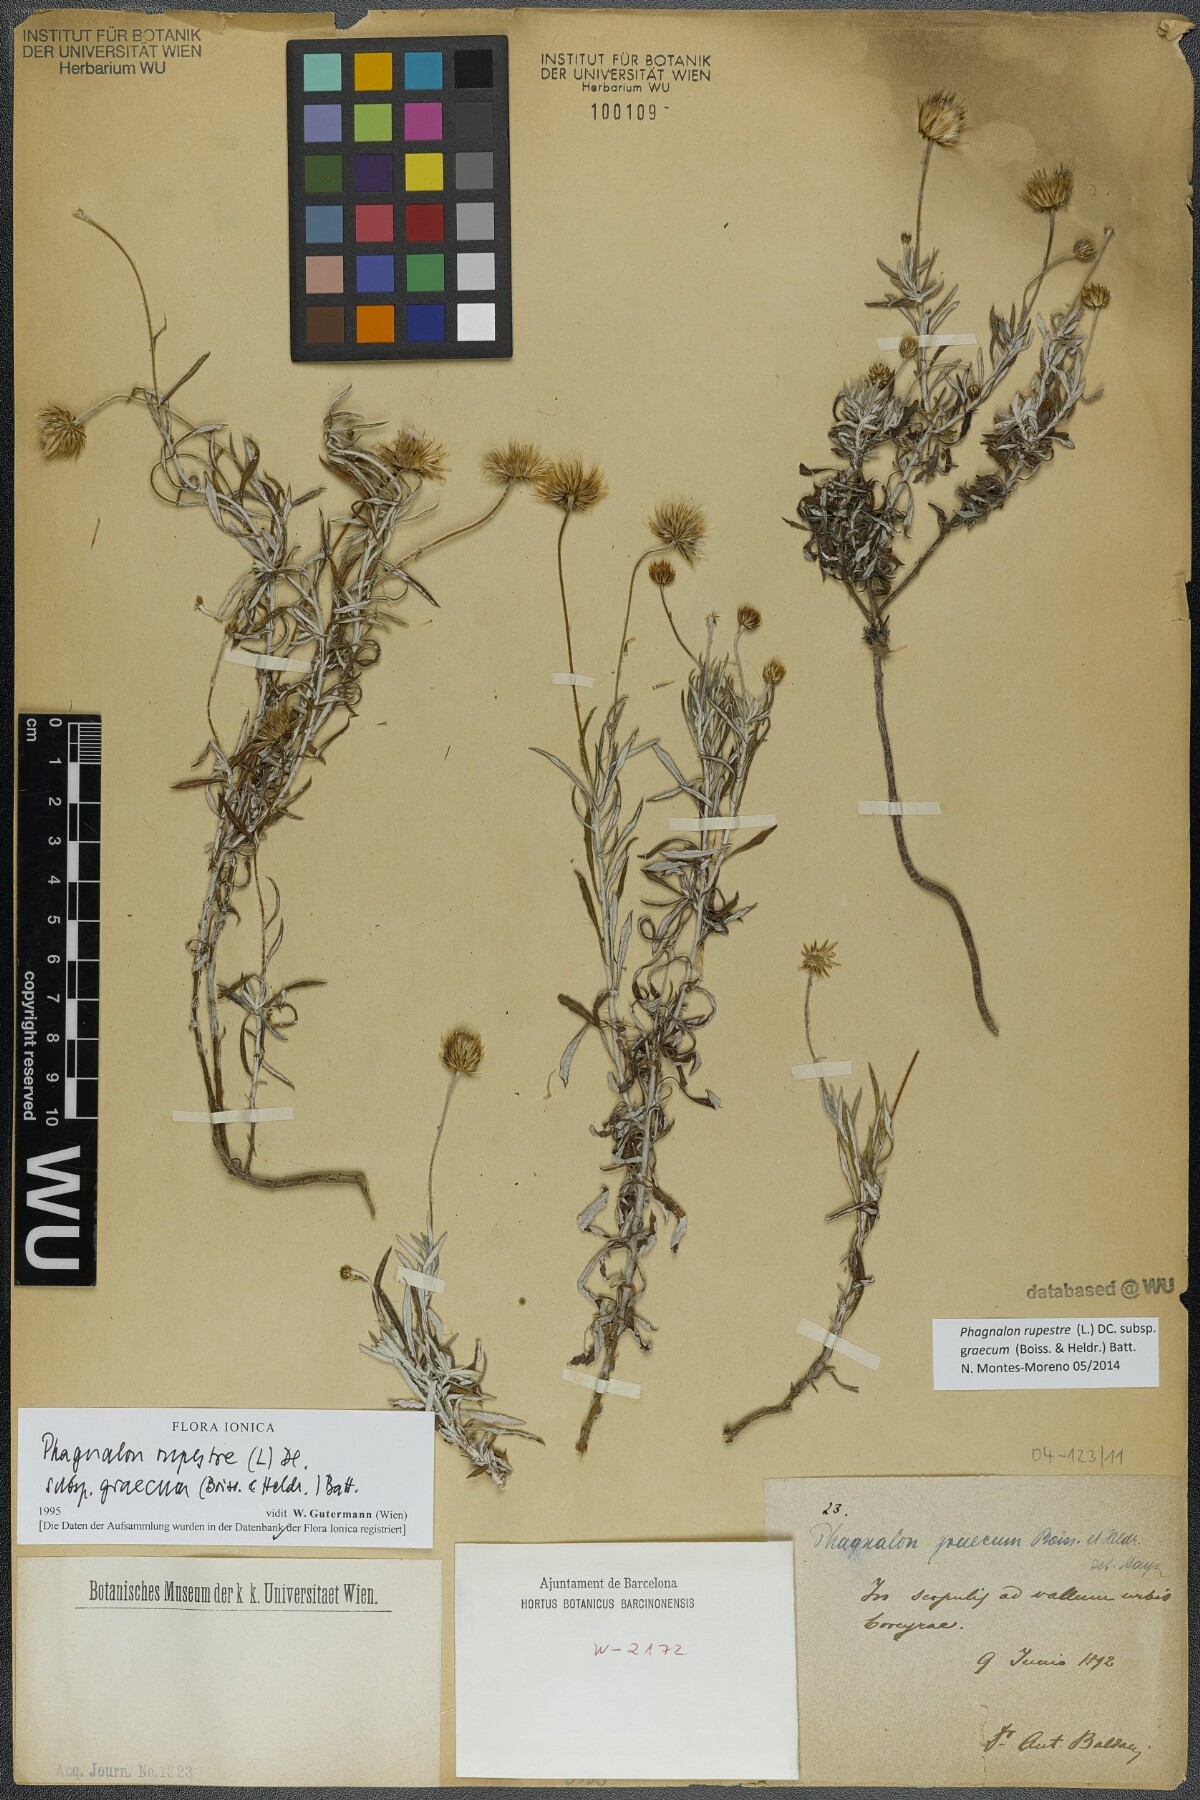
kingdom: Plantae
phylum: Tracheophyta
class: Magnoliopsida
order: Asterales
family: Asteraceae
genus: Phagnalon
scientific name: Phagnalon graecum
